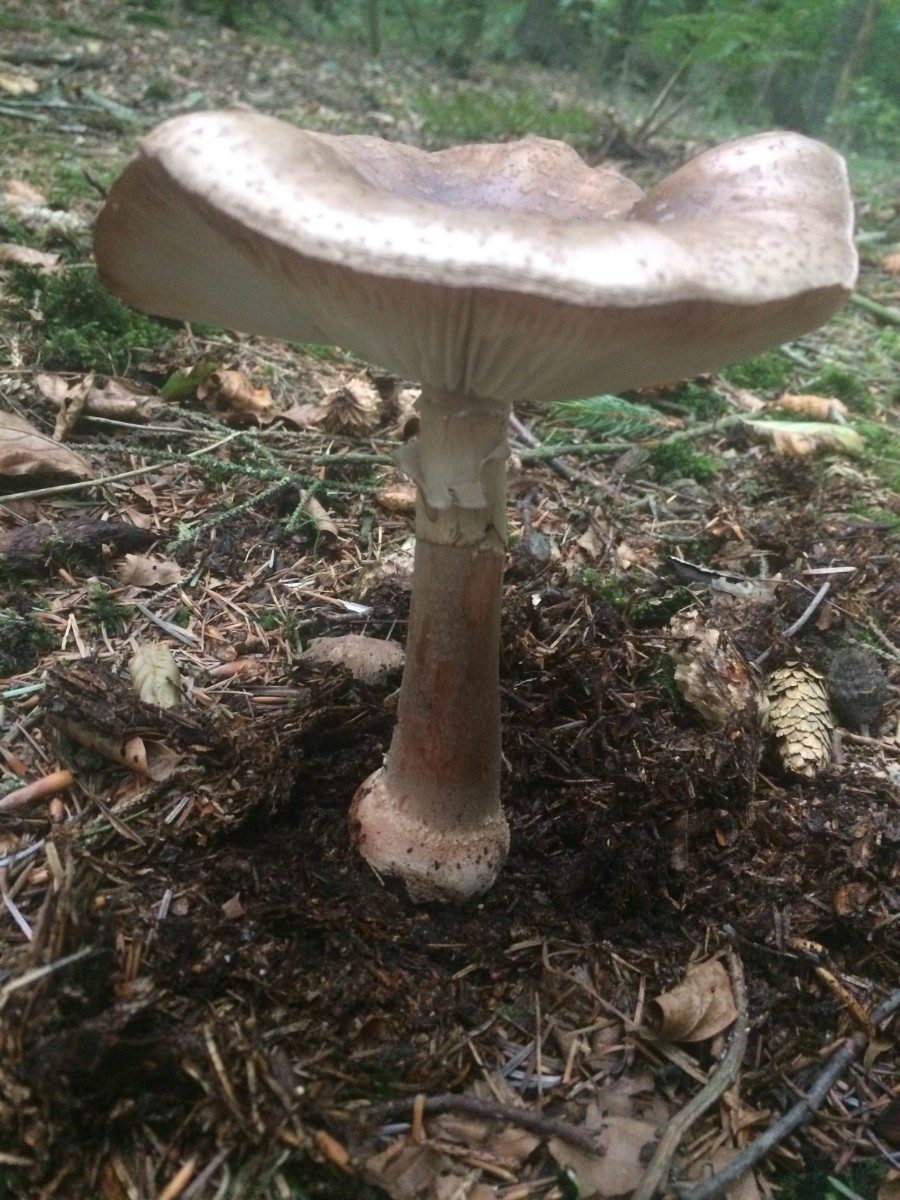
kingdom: Fungi
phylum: Basidiomycota
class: Agaricomycetes
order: Agaricales
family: Amanitaceae
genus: Amanita
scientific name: Amanita rubescens
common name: rødmende fluesvamp
